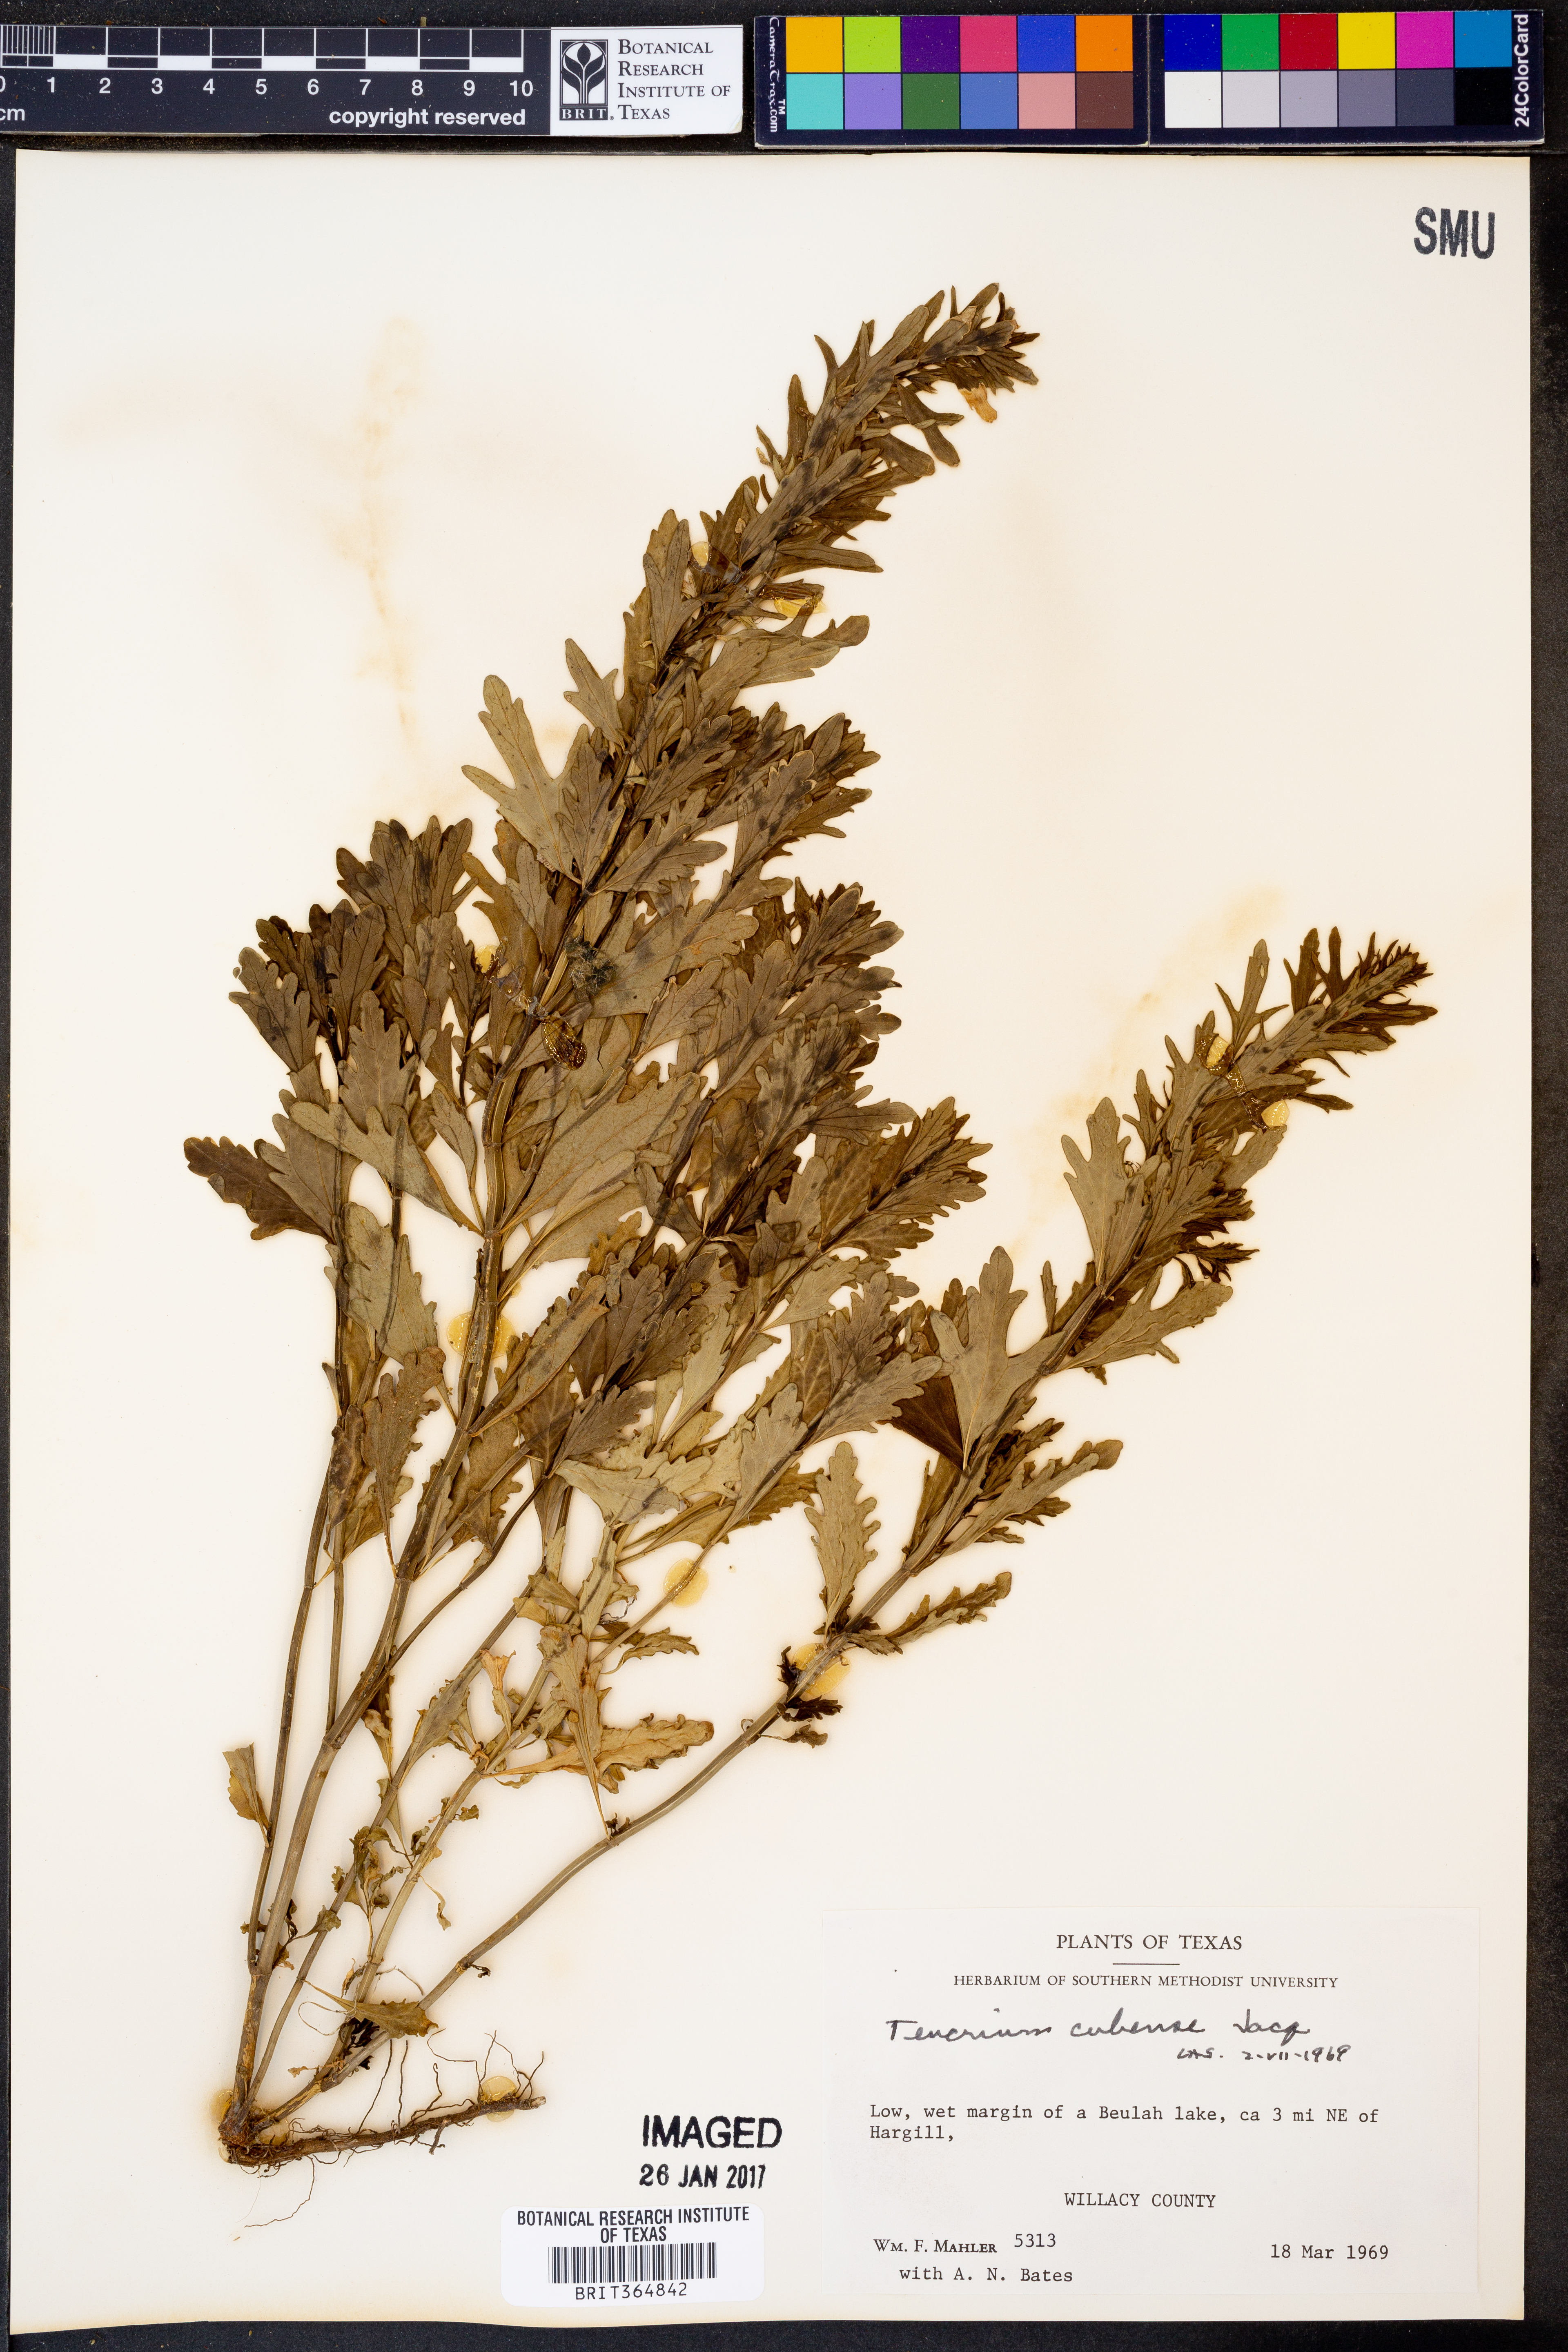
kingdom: Plantae
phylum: Tracheophyta
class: Magnoliopsida
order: Lamiales
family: Lamiaceae
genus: Teucrium
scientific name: Teucrium cubense
